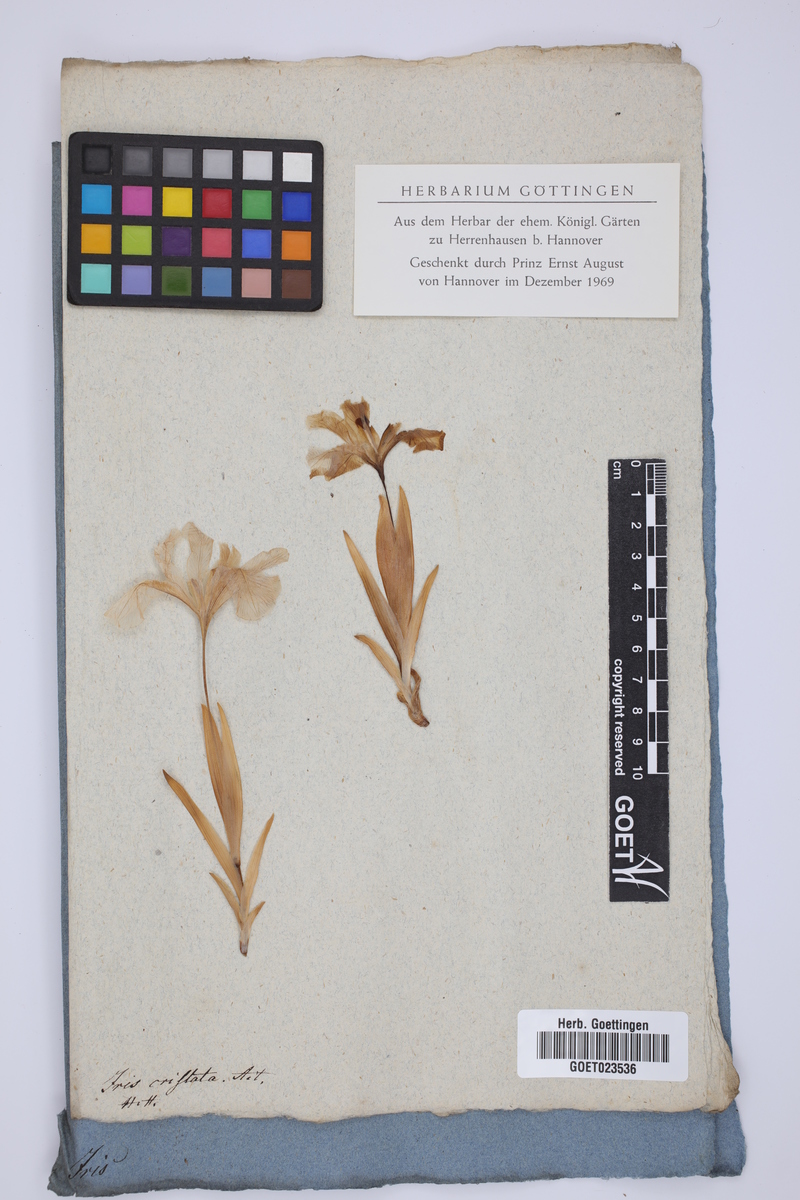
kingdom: Plantae
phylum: Tracheophyta
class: Liliopsida
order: Asparagales
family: Iridaceae
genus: Iris
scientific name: Iris cristata
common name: Crested iris
